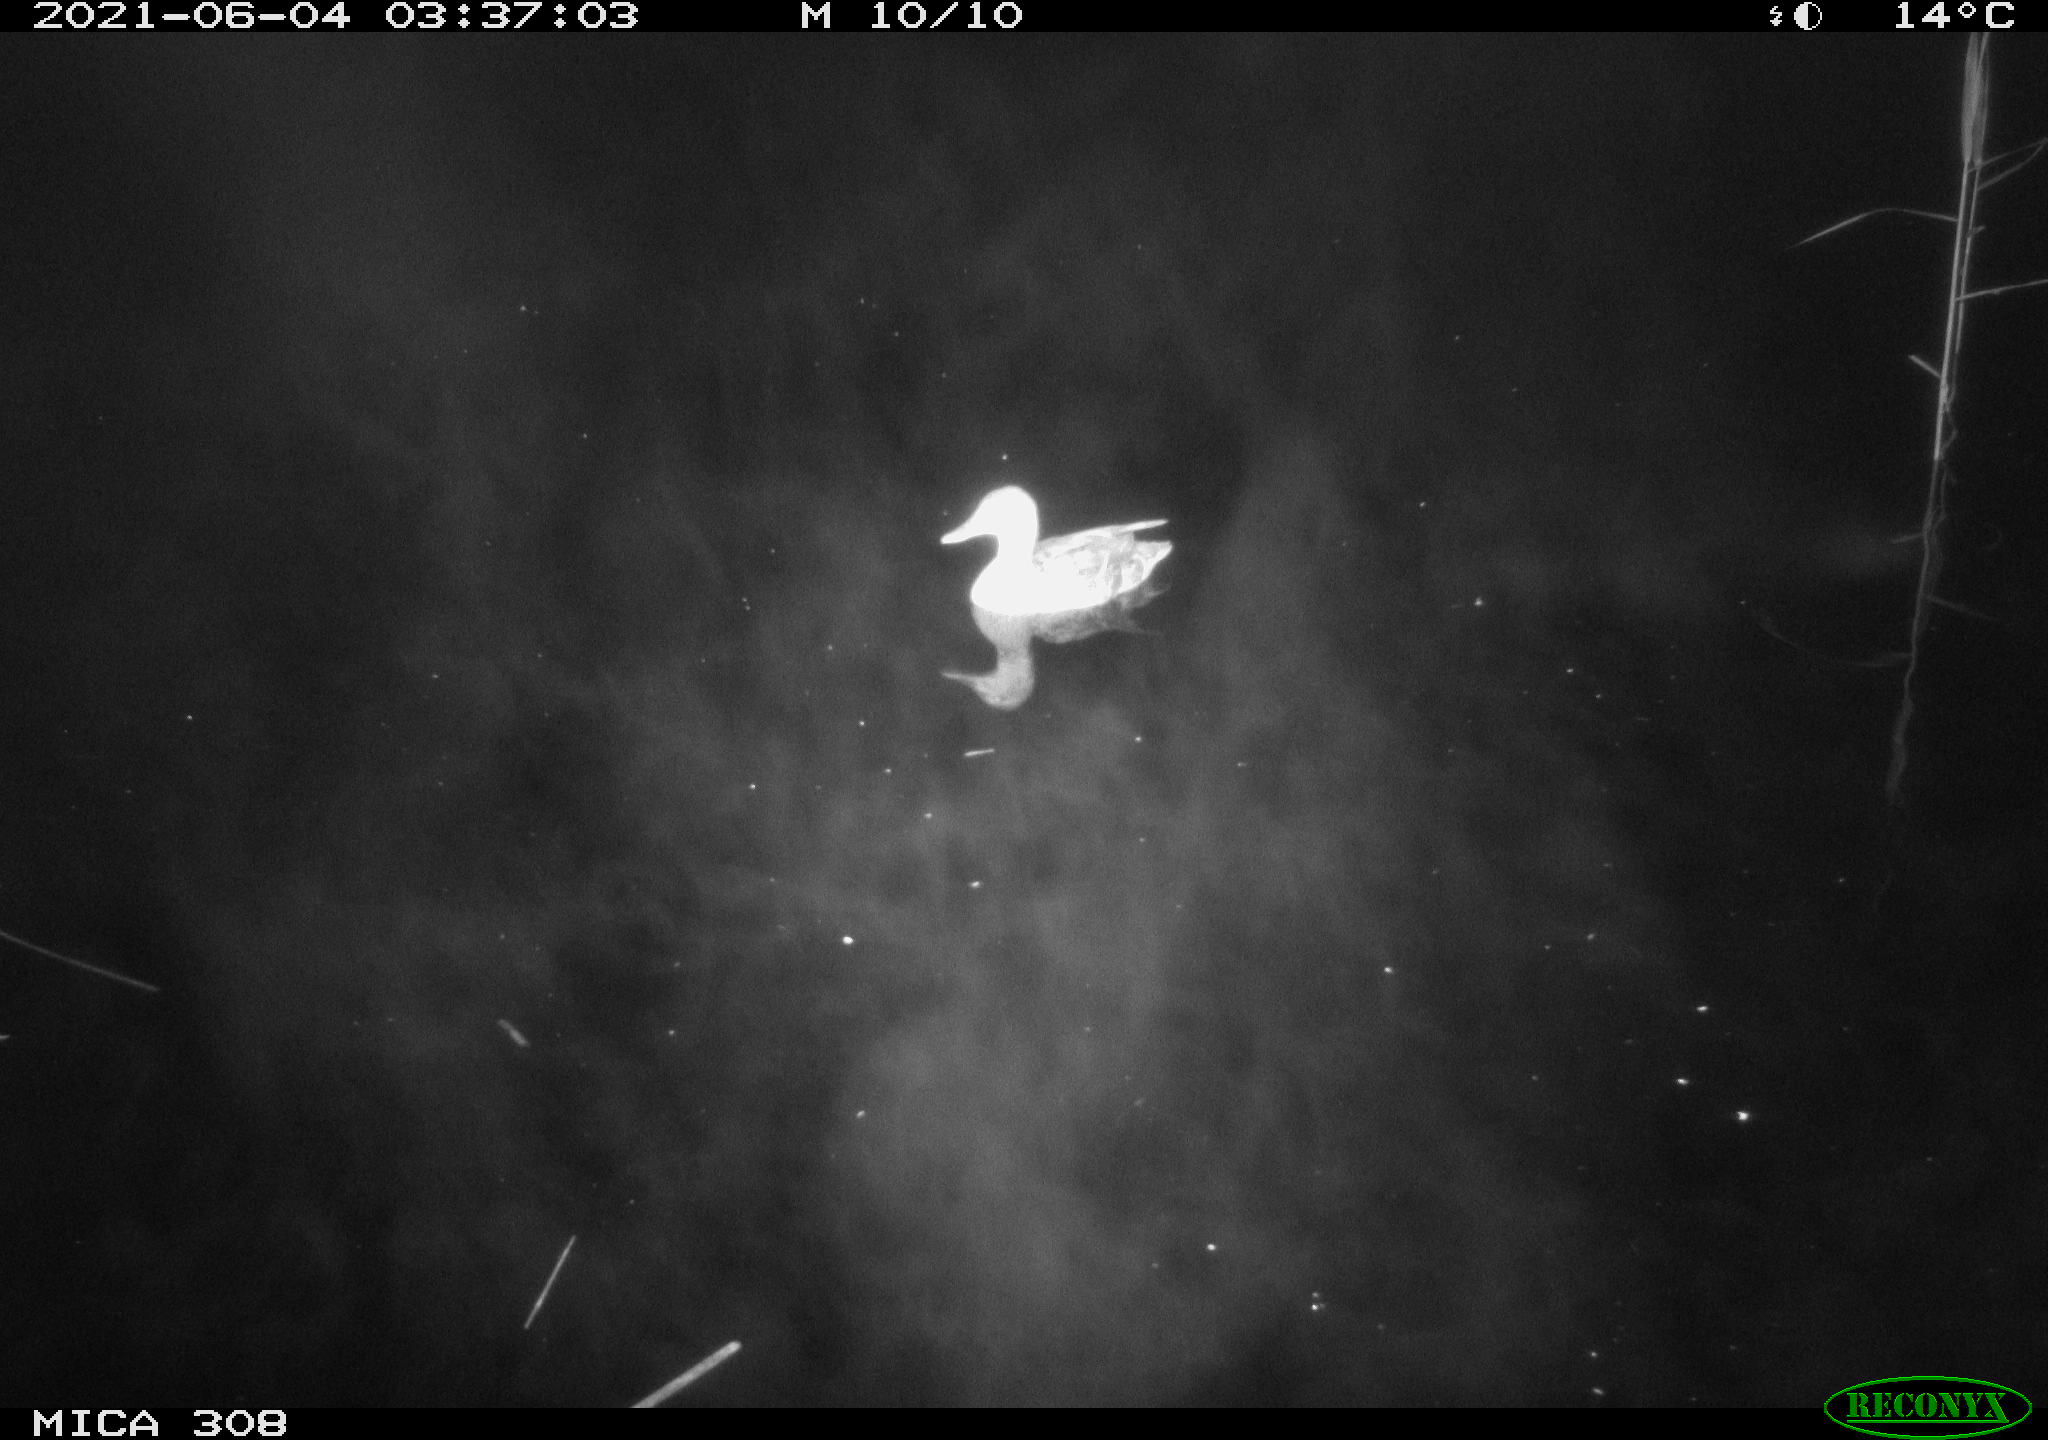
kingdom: Animalia
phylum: Chordata
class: Aves
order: Anseriformes
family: Anatidae
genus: Mareca
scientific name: Mareca strepera
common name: Gadwall
